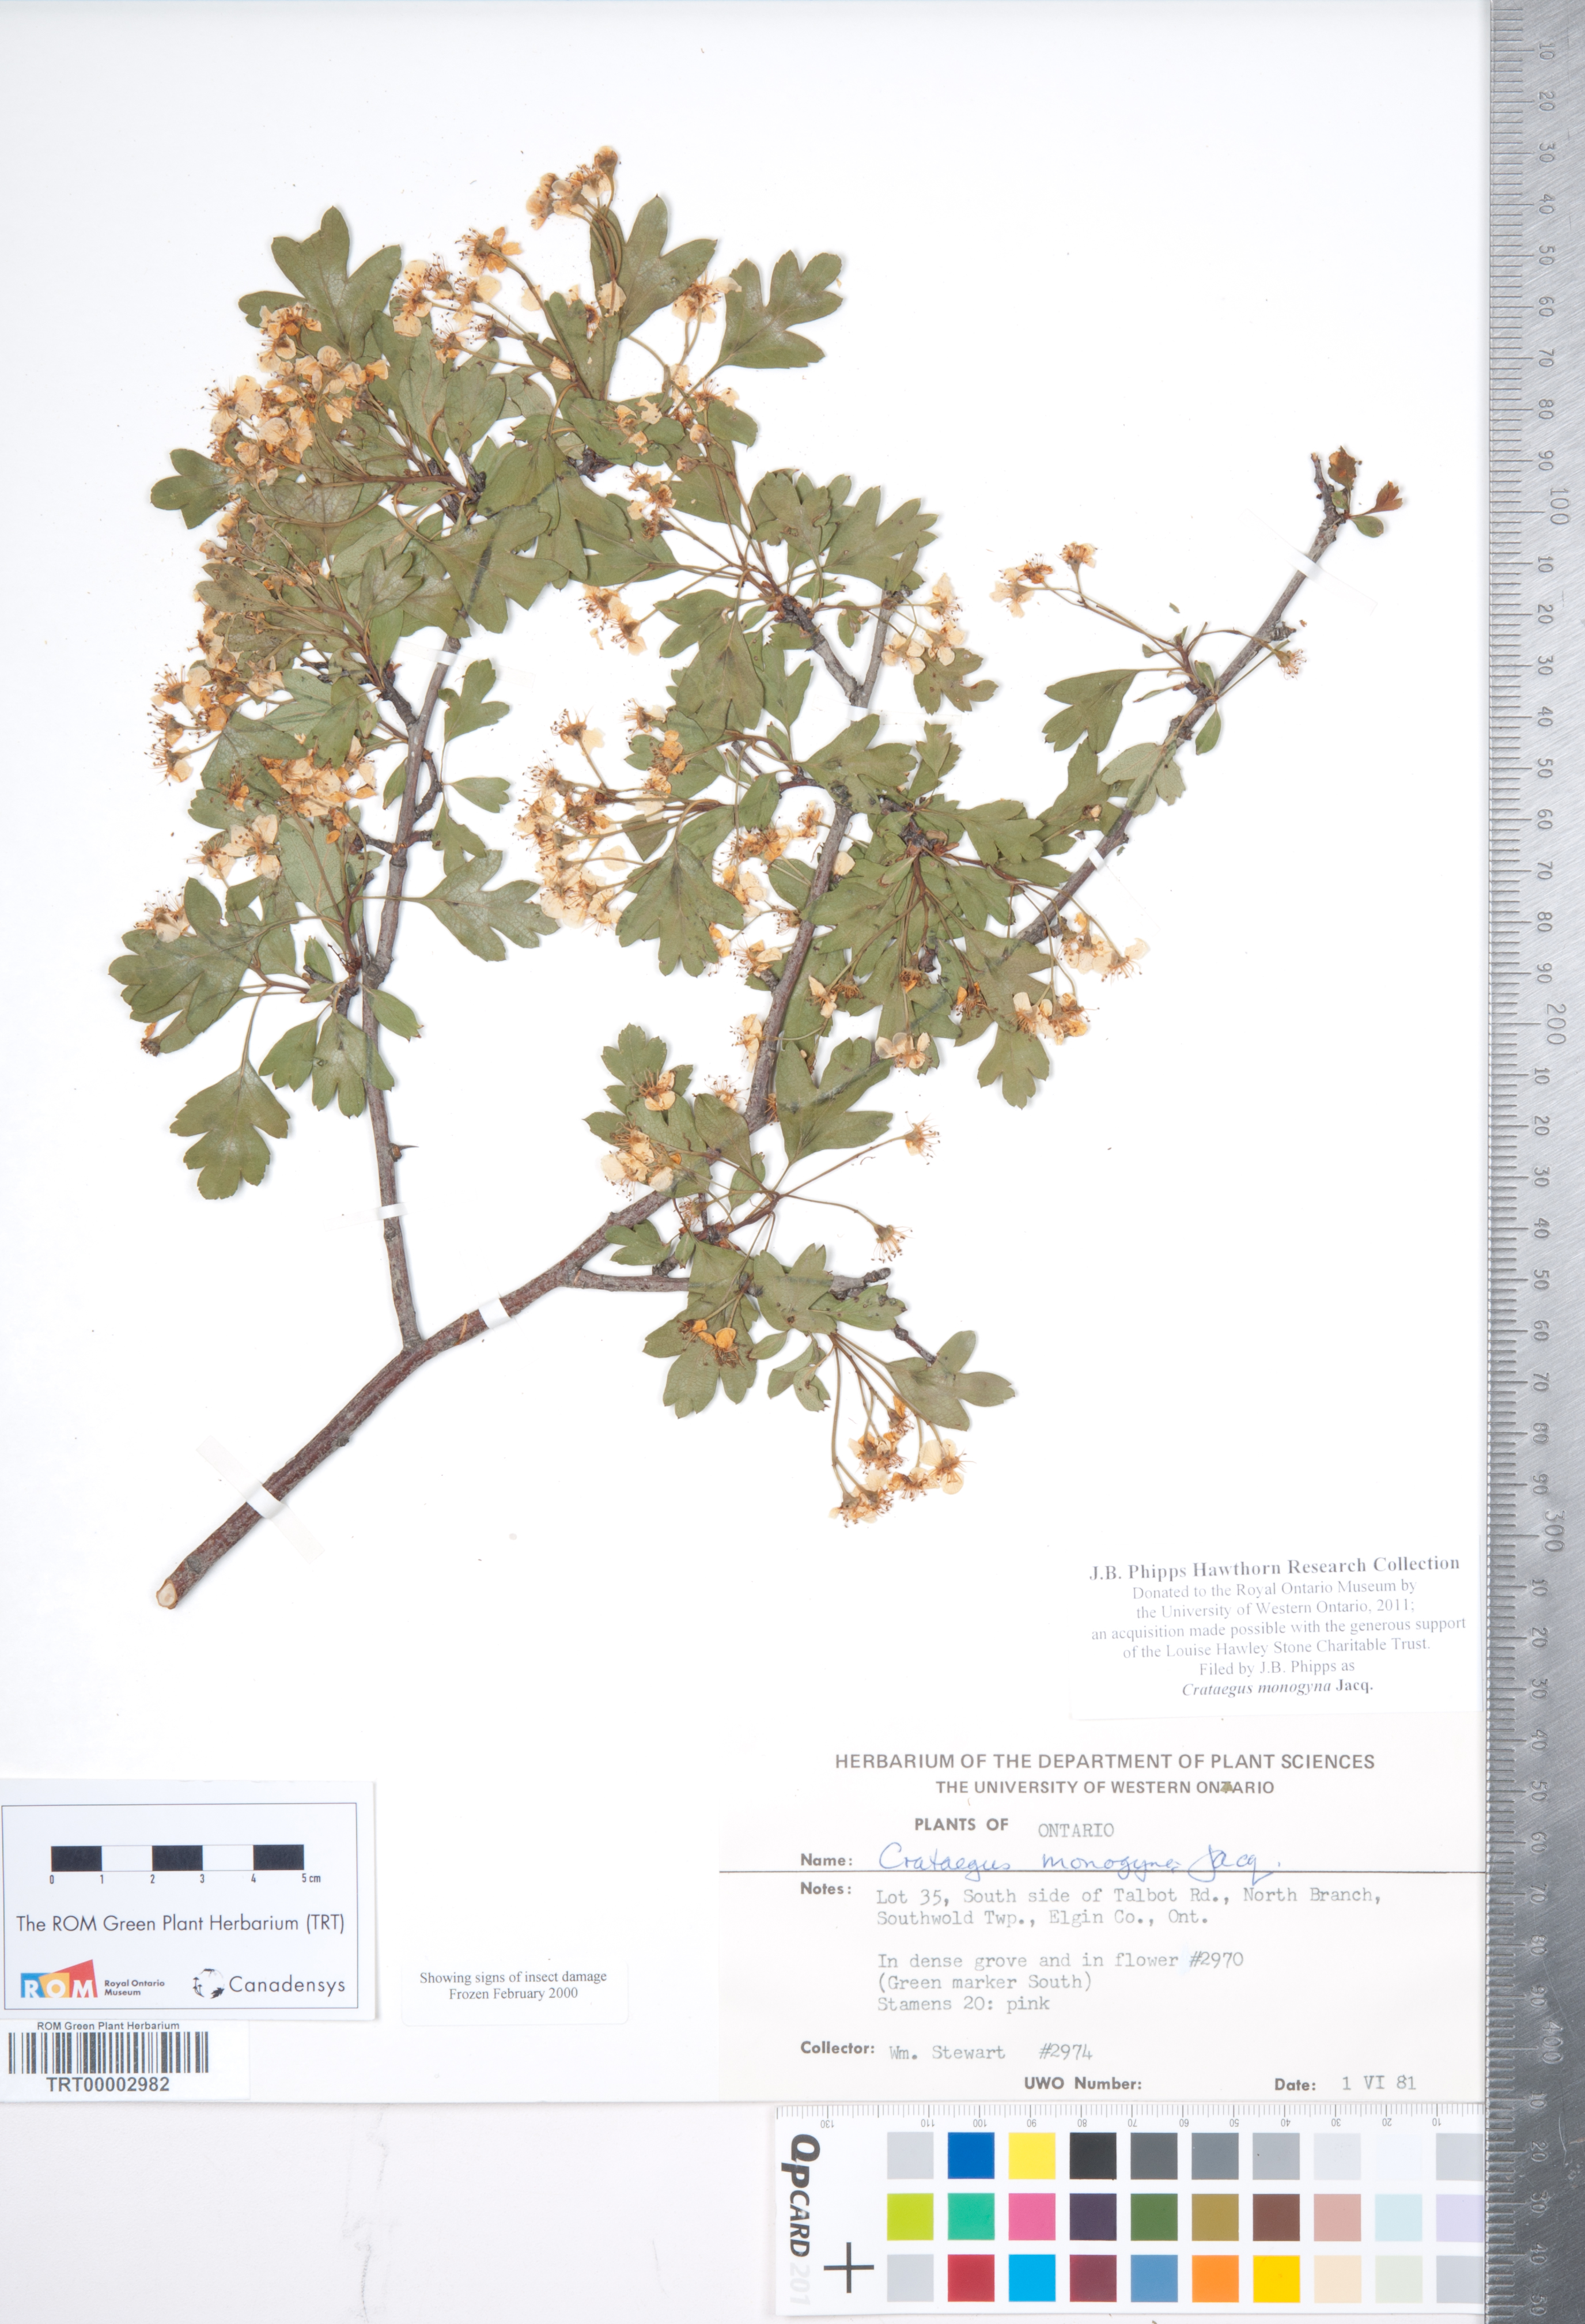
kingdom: Plantae
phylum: Tracheophyta
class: Magnoliopsida
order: Rosales
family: Rosaceae
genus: Crataegus
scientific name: Crataegus monogyna
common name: Hawthorn
